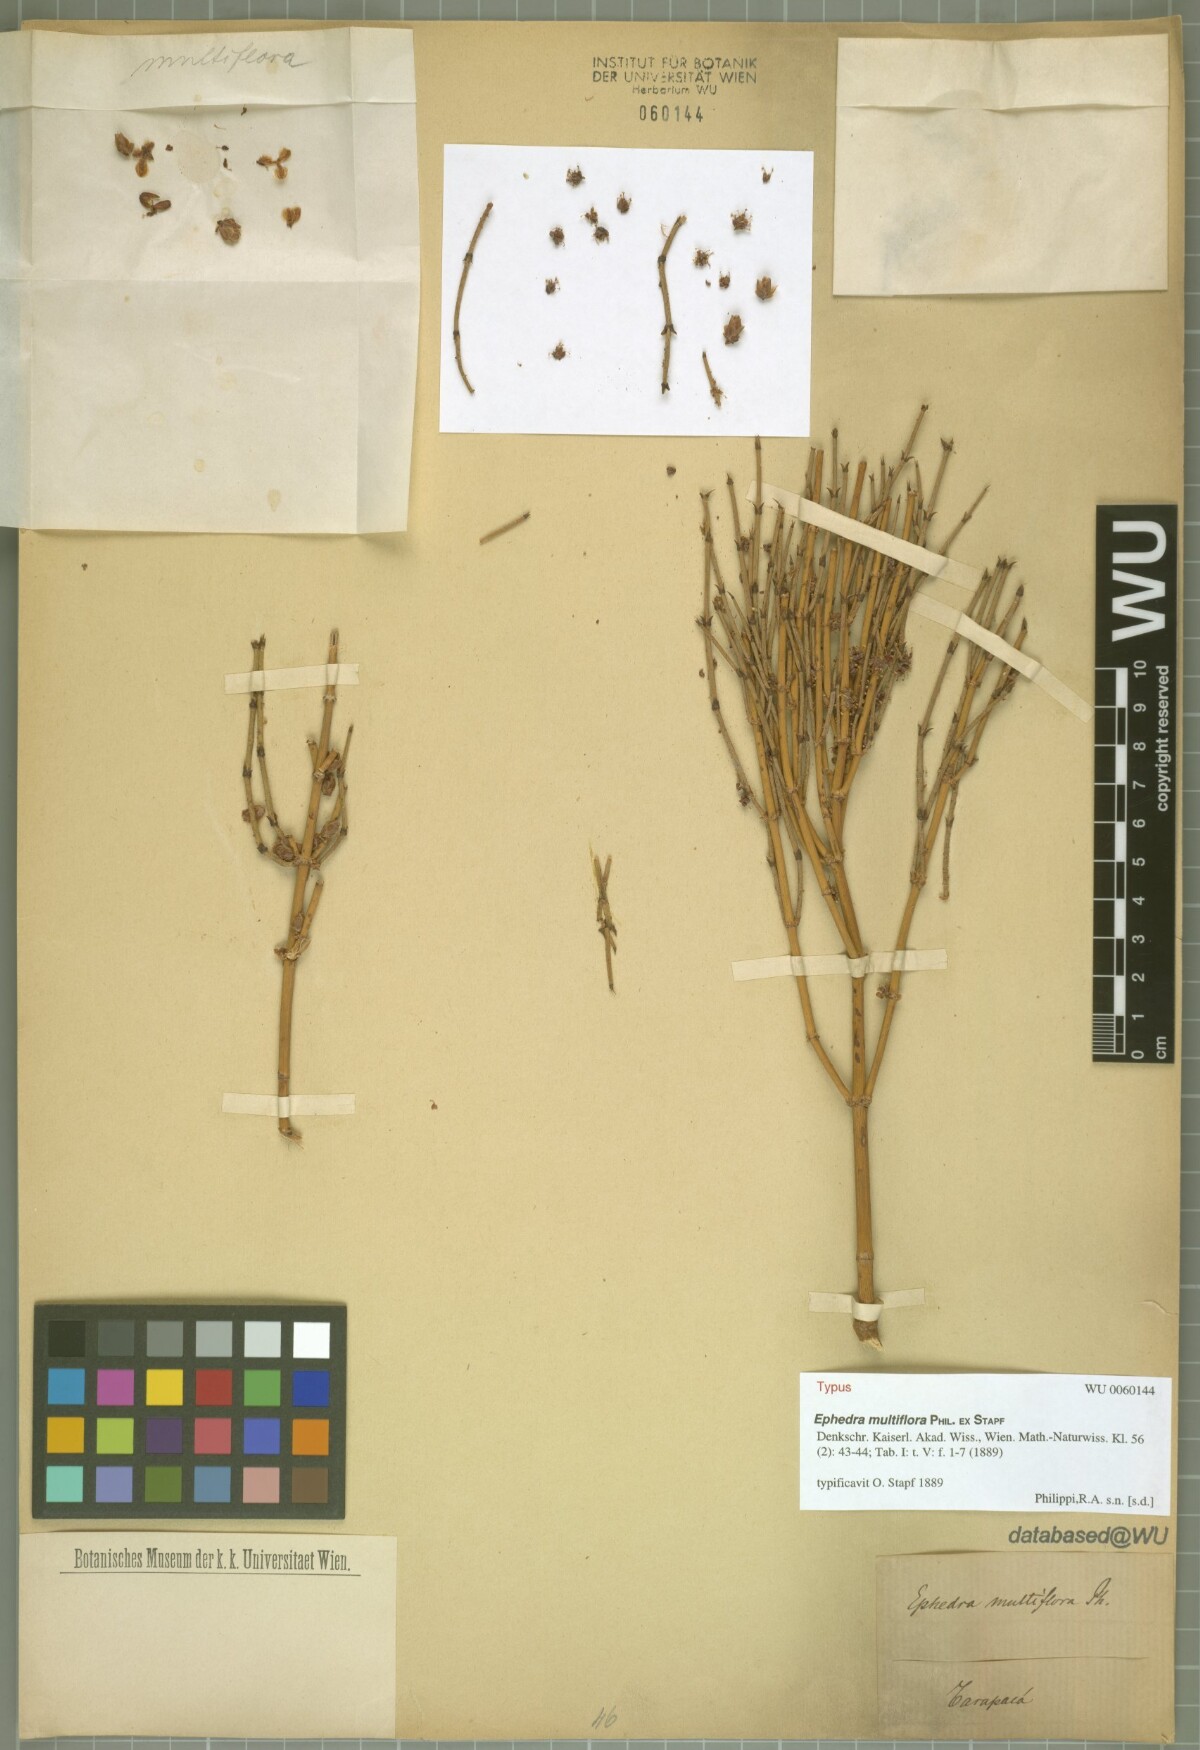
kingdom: Plantae
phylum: Tracheophyta
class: Gnetopsida
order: Ephedrales
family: Ephedraceae
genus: Ephedra
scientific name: Ephedra multiflora
